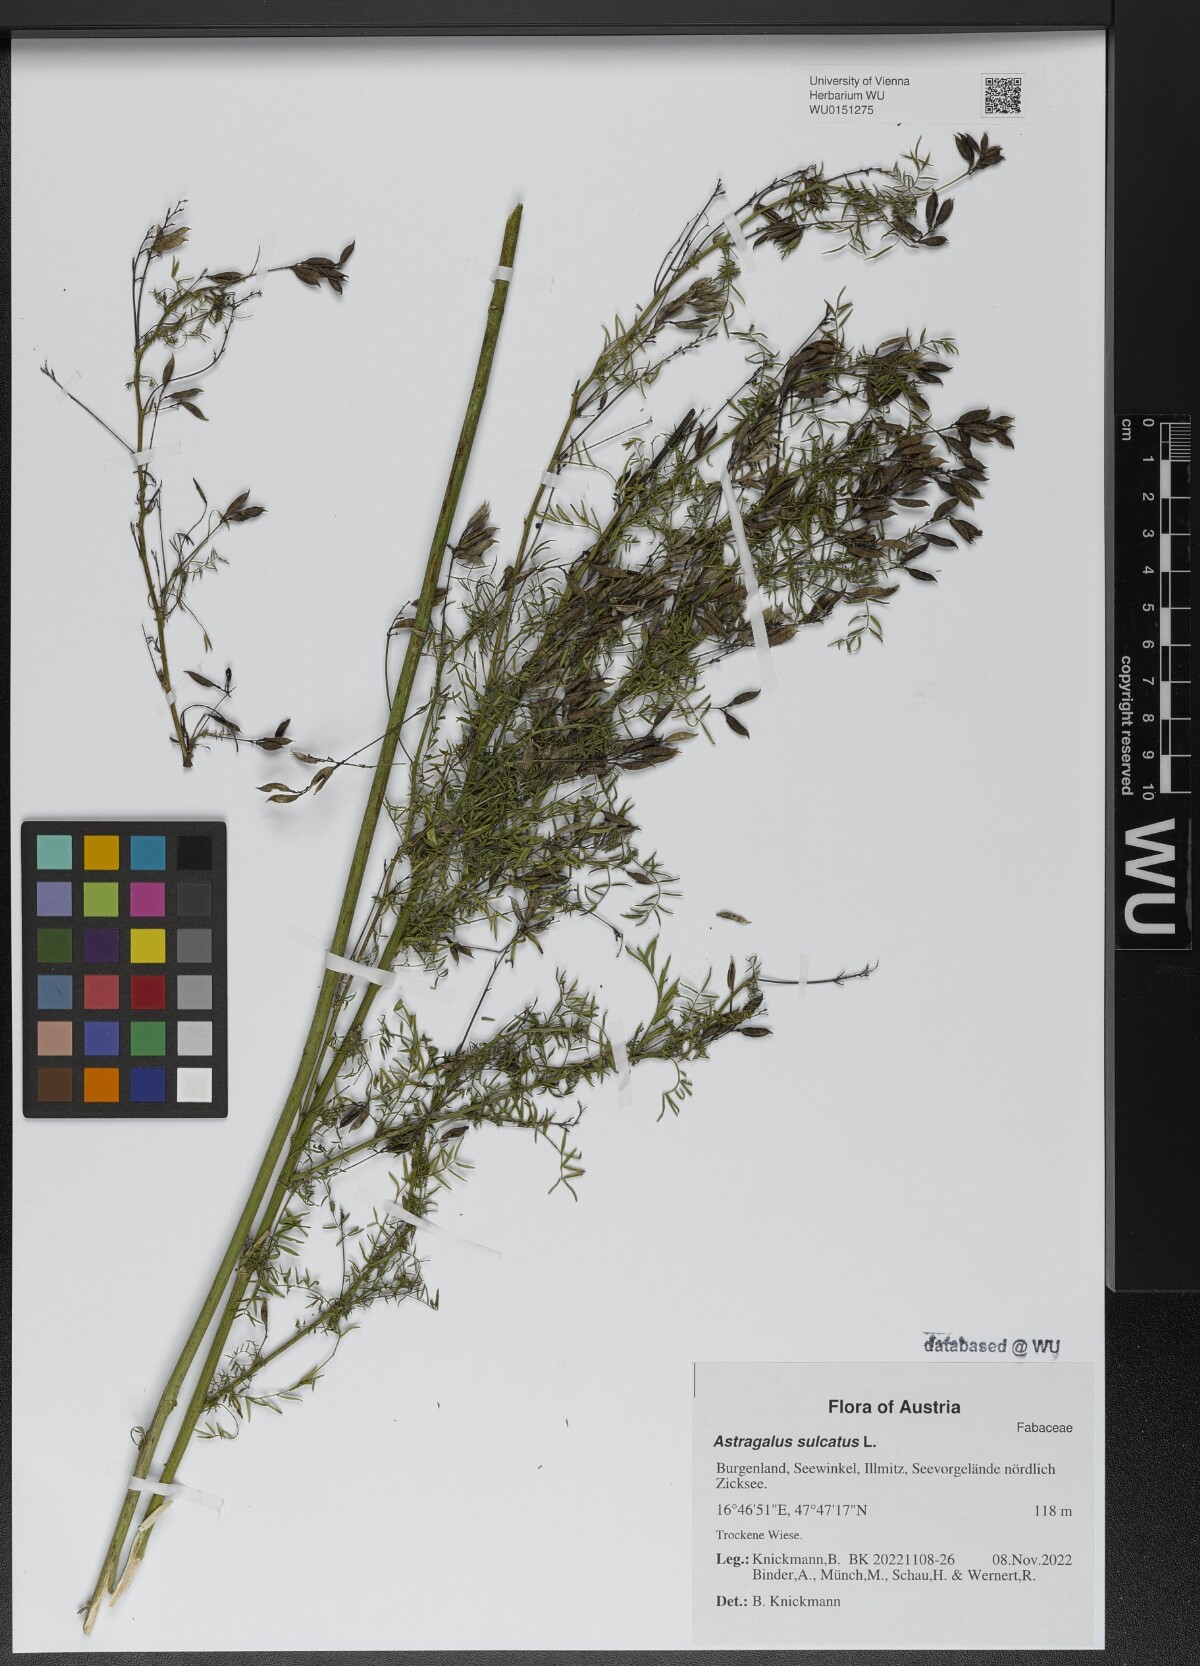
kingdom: Plantae
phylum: Tracheophyta
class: Magnoliopsida
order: Fabales
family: Fabaceae
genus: Astragalus
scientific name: Astragalus sulcatus
